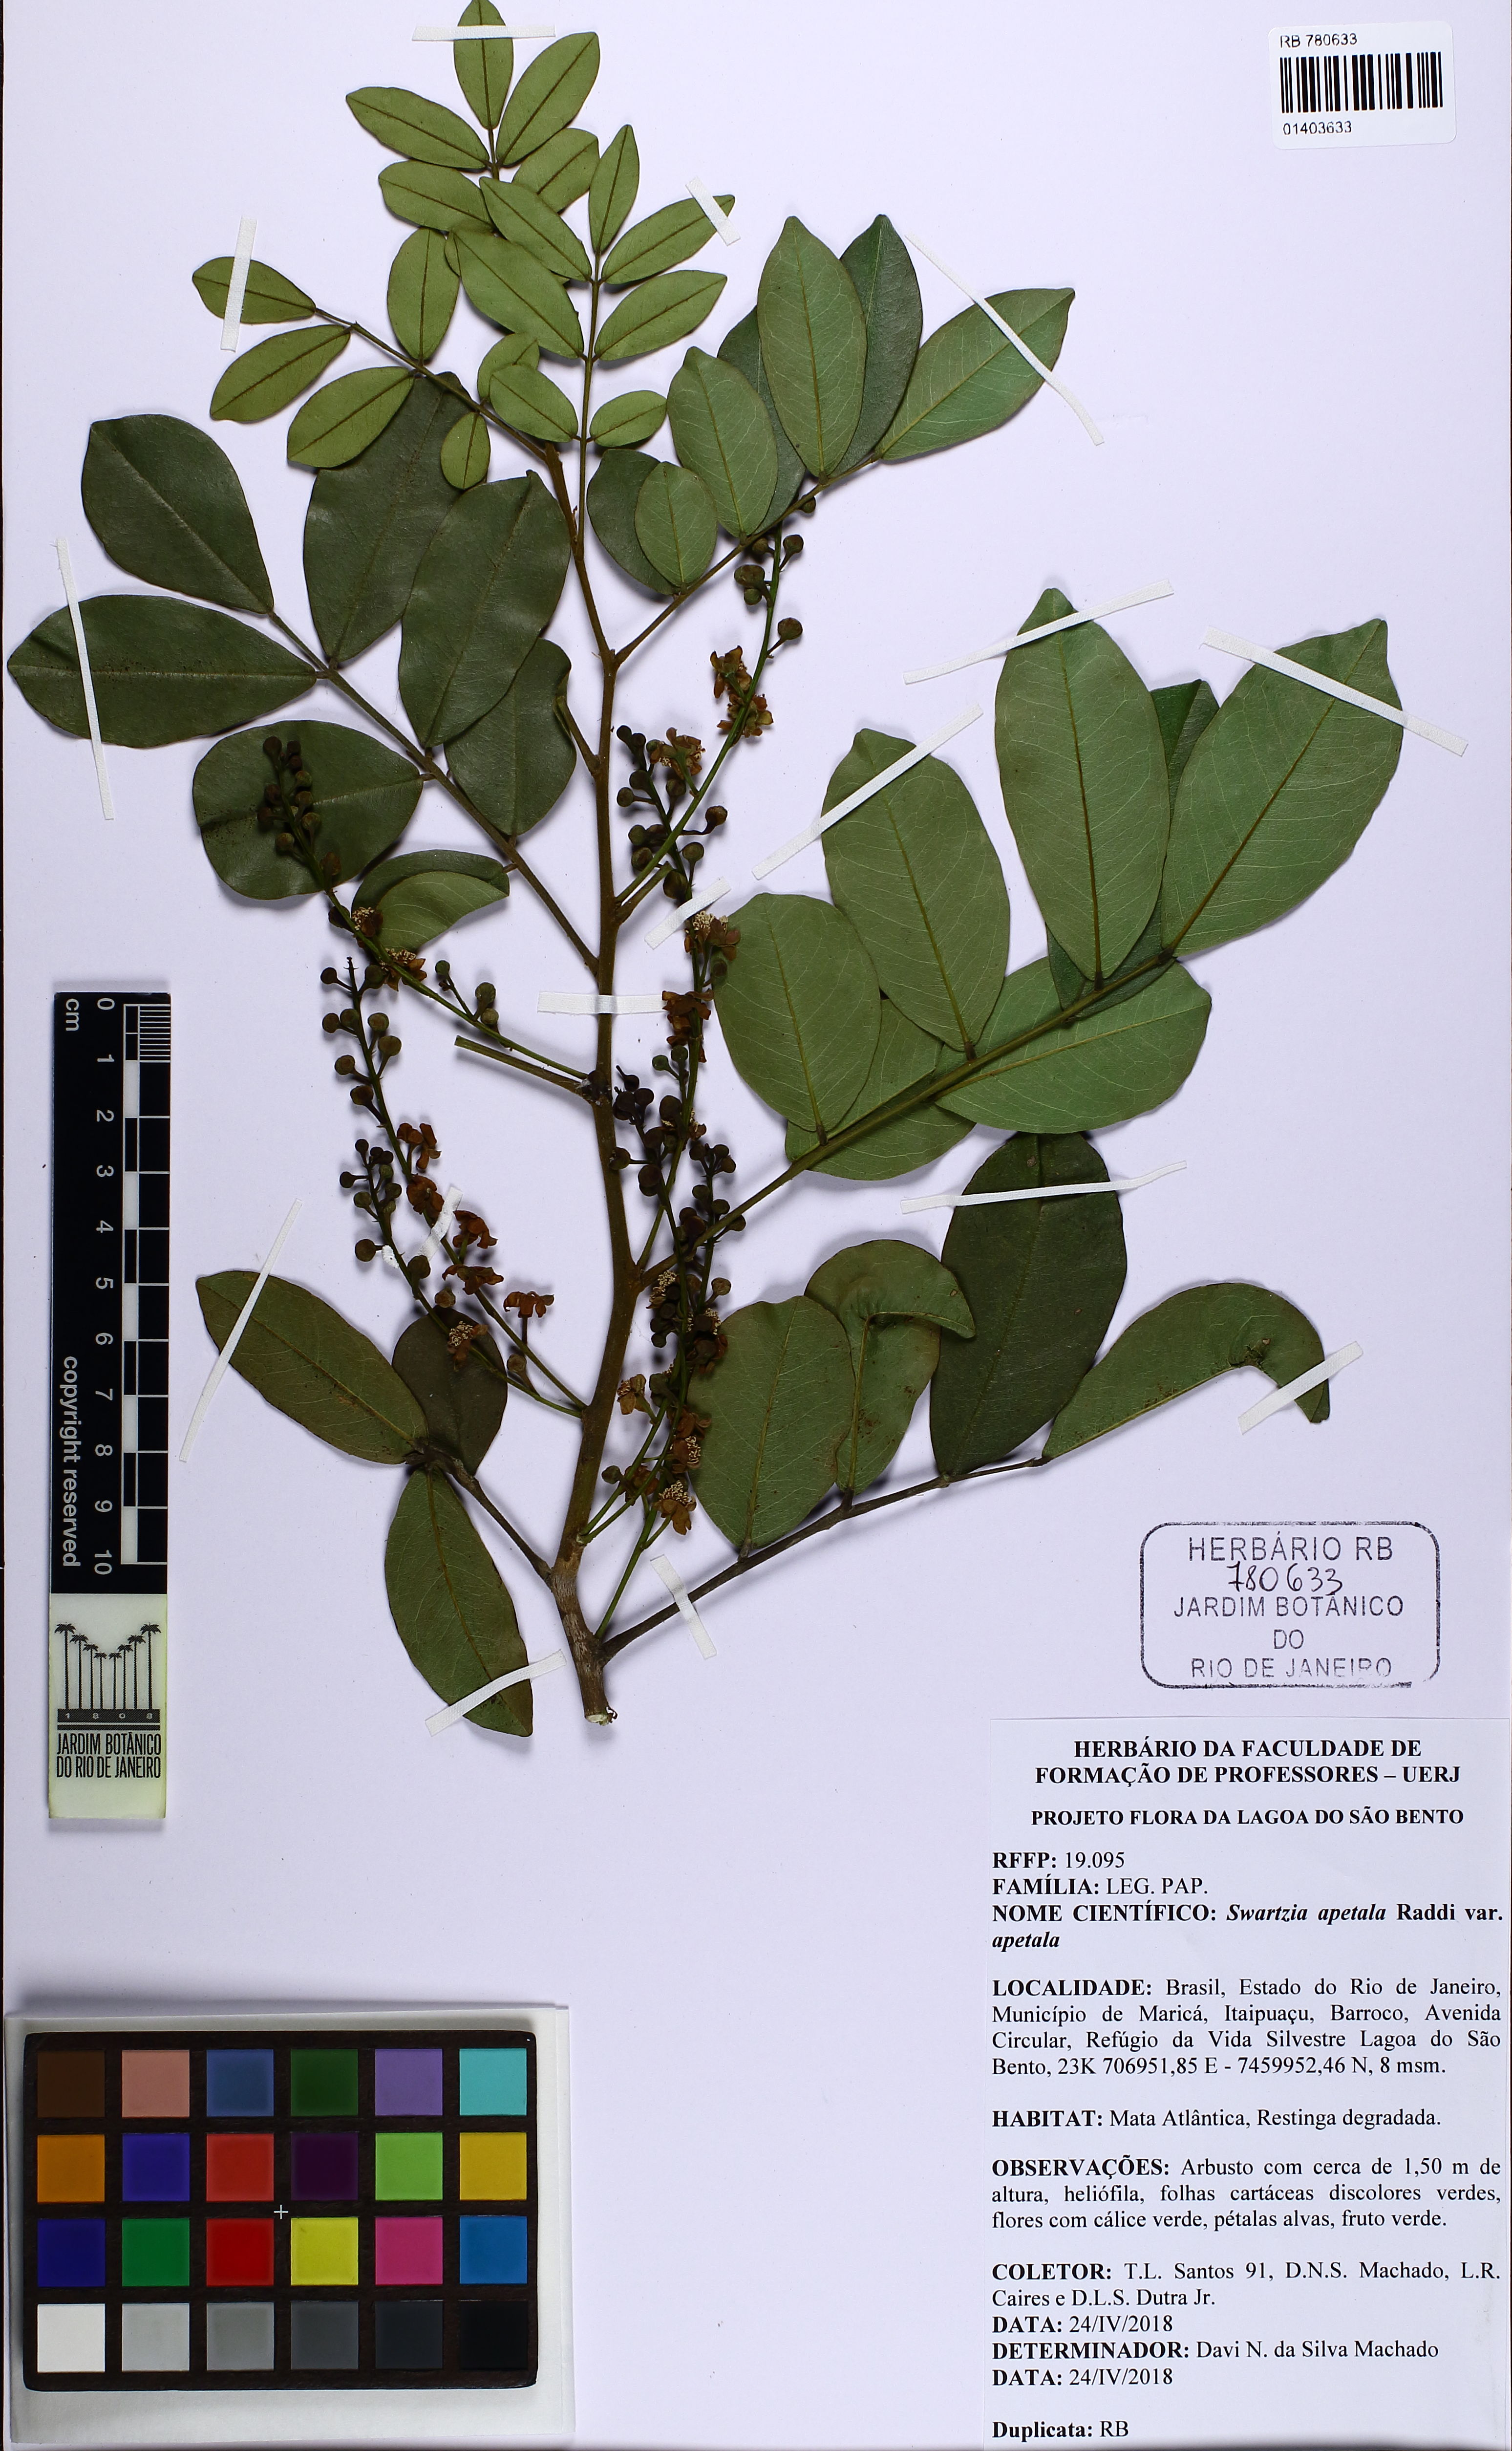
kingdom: Plantae
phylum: Tracheophyta
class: Magnoliopsida
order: Fabales
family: Fabaceae
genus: Swartzia
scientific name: Swartzia apetala
